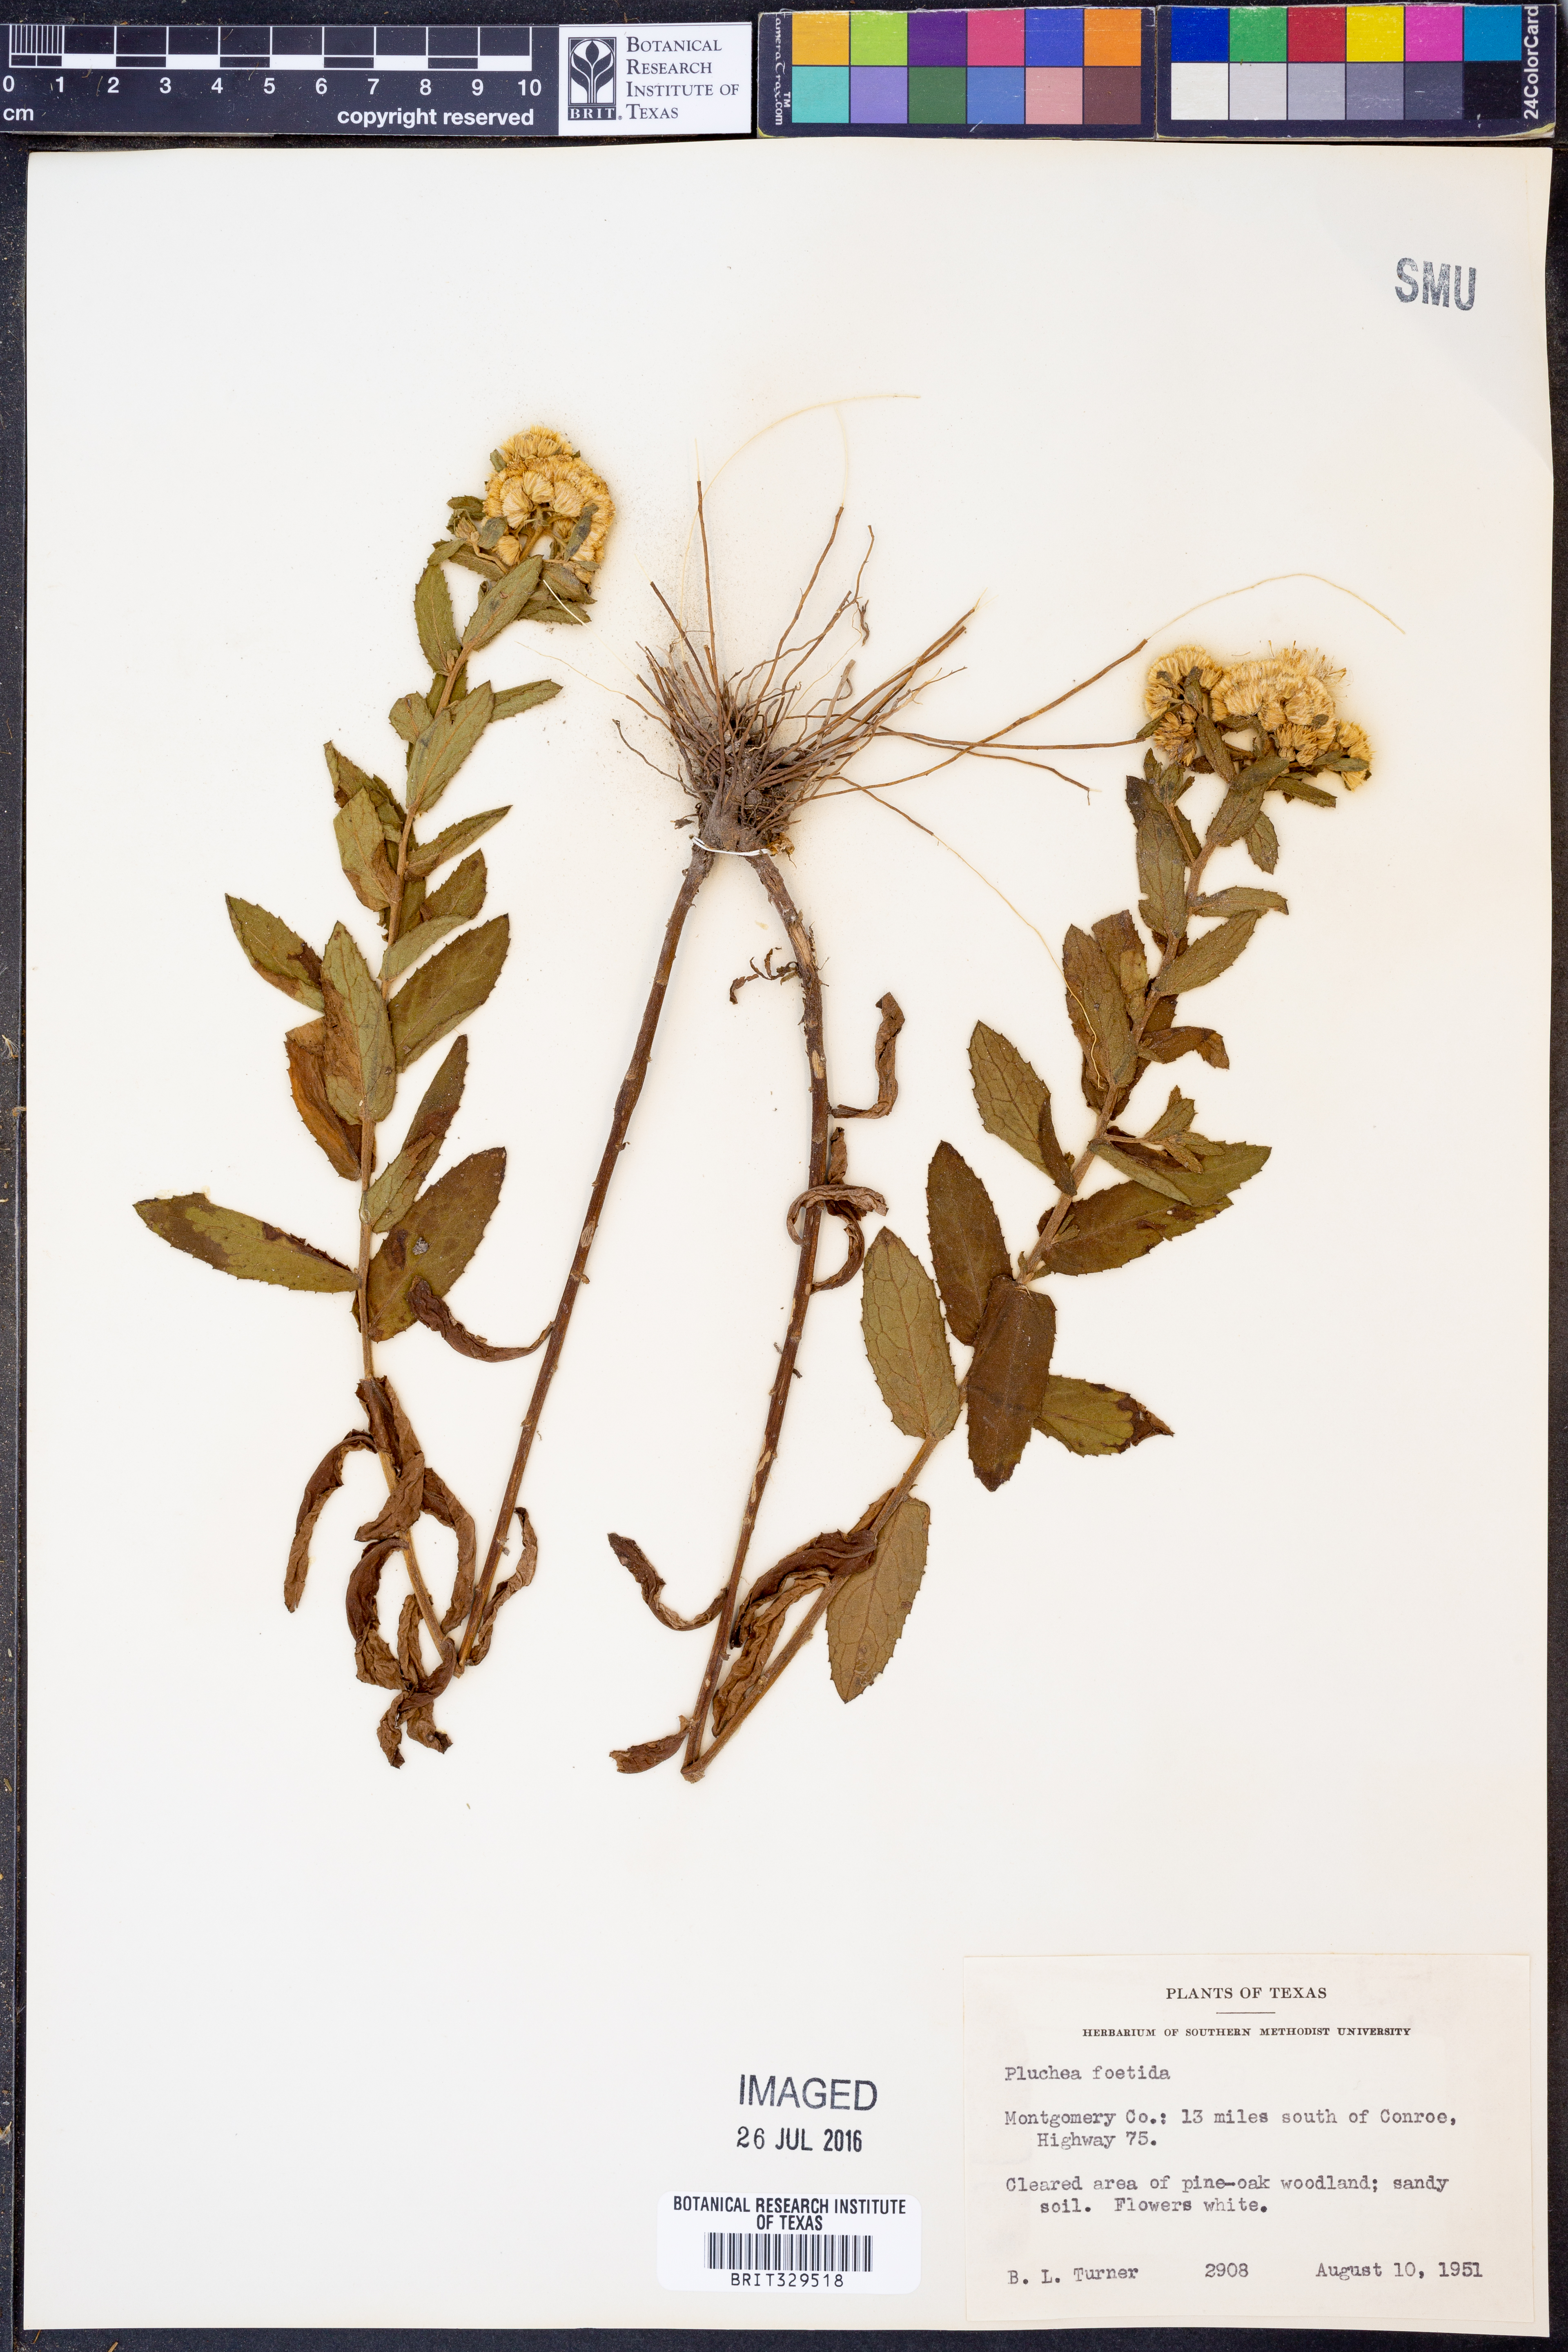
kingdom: Plantae
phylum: Tracheophyta
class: Magnoliopsida
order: Asterales
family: Asteraceae
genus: Pluchea
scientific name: Pluchea foetida
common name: Stinking camphorweed
